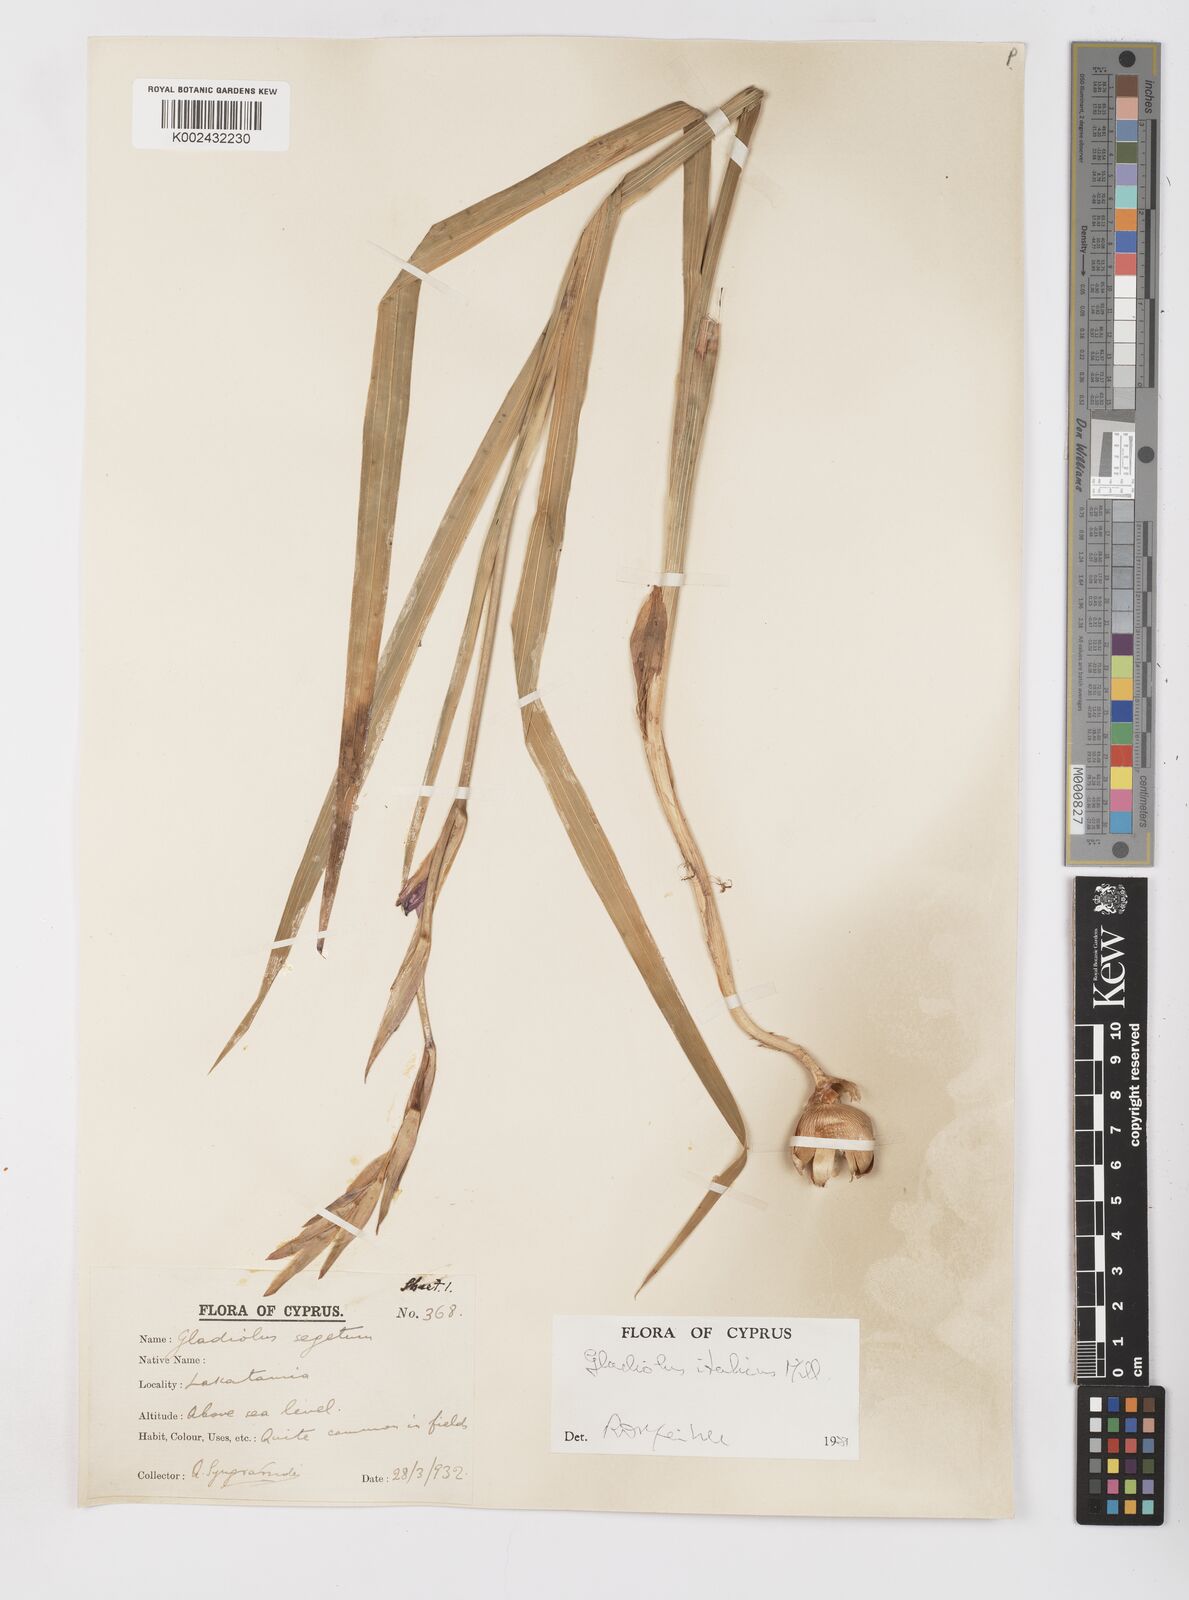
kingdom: Plantae
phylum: Tracheophyta
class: Liliopsida
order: Asparagales
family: Iridaceae
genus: Gladiolus
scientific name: Gladiolus italicus
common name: Field gladiolus
